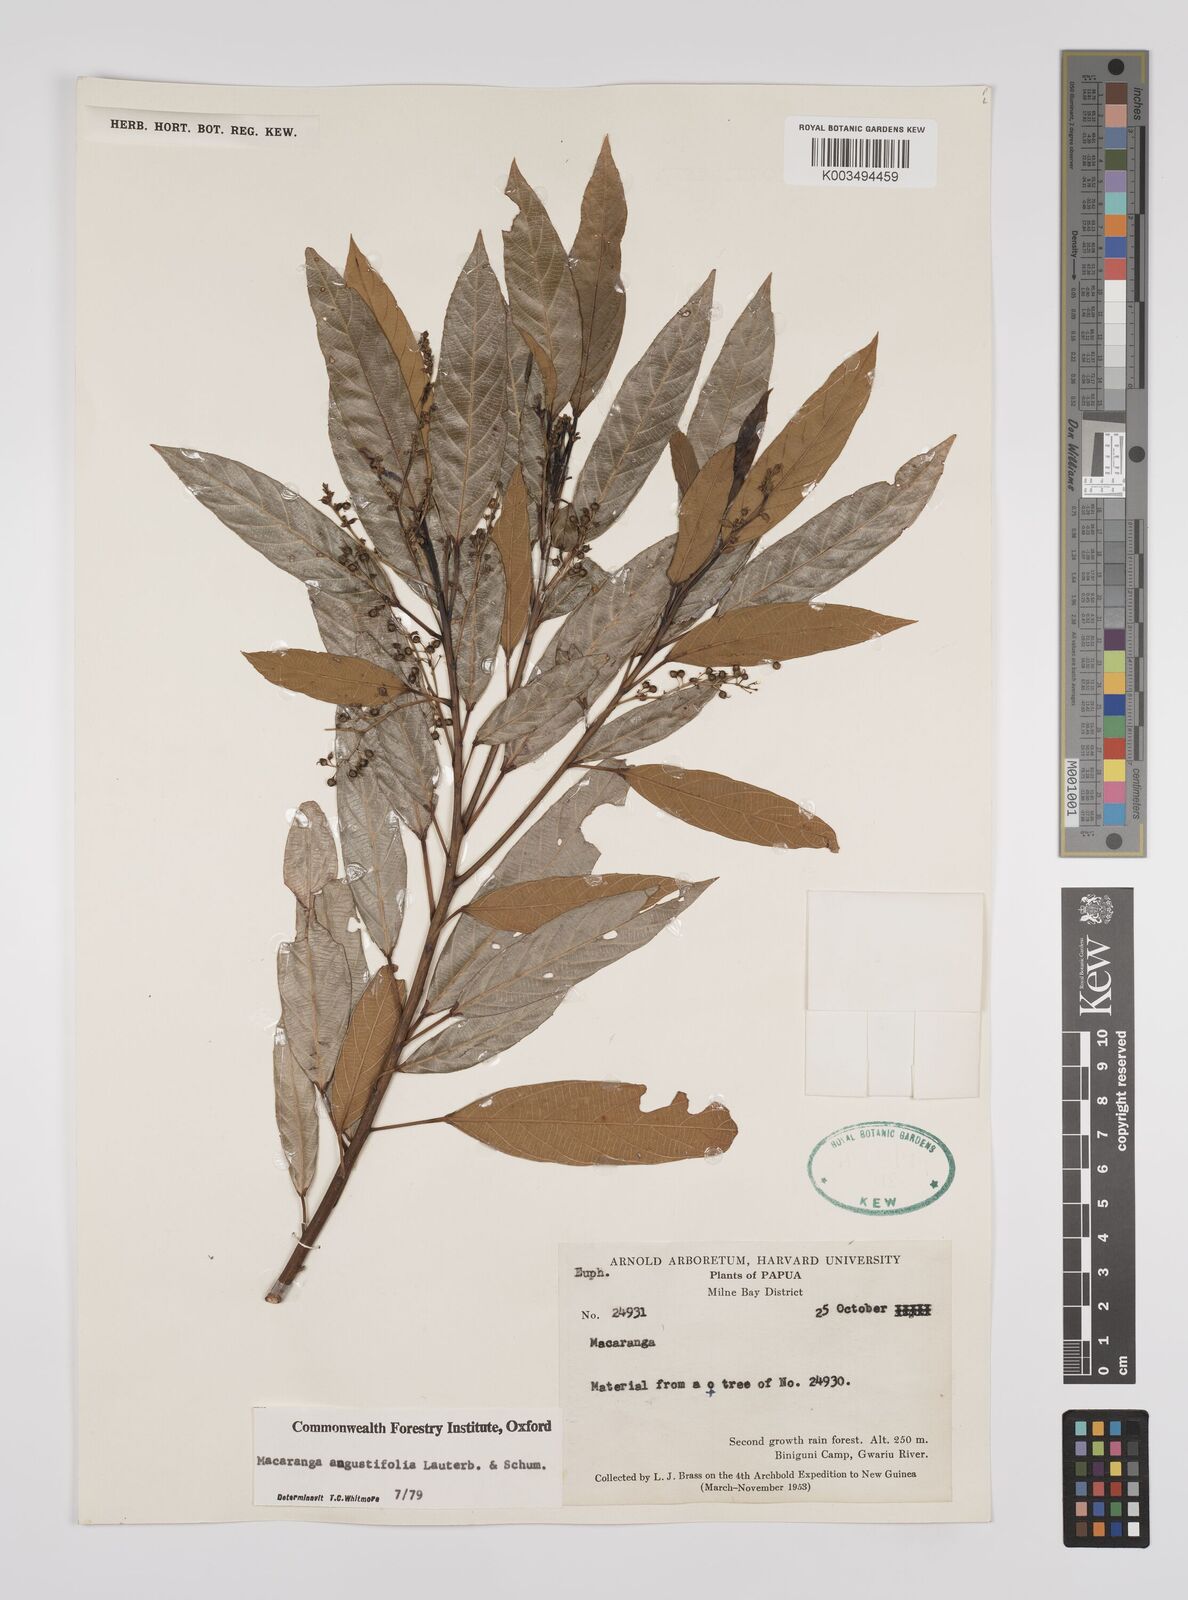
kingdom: Plantae
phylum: Tracheophyta
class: Magnoliopsida
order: Malpighiales
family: Euphorbiaceae
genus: Macaranga
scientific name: Macaranga angustifolia
